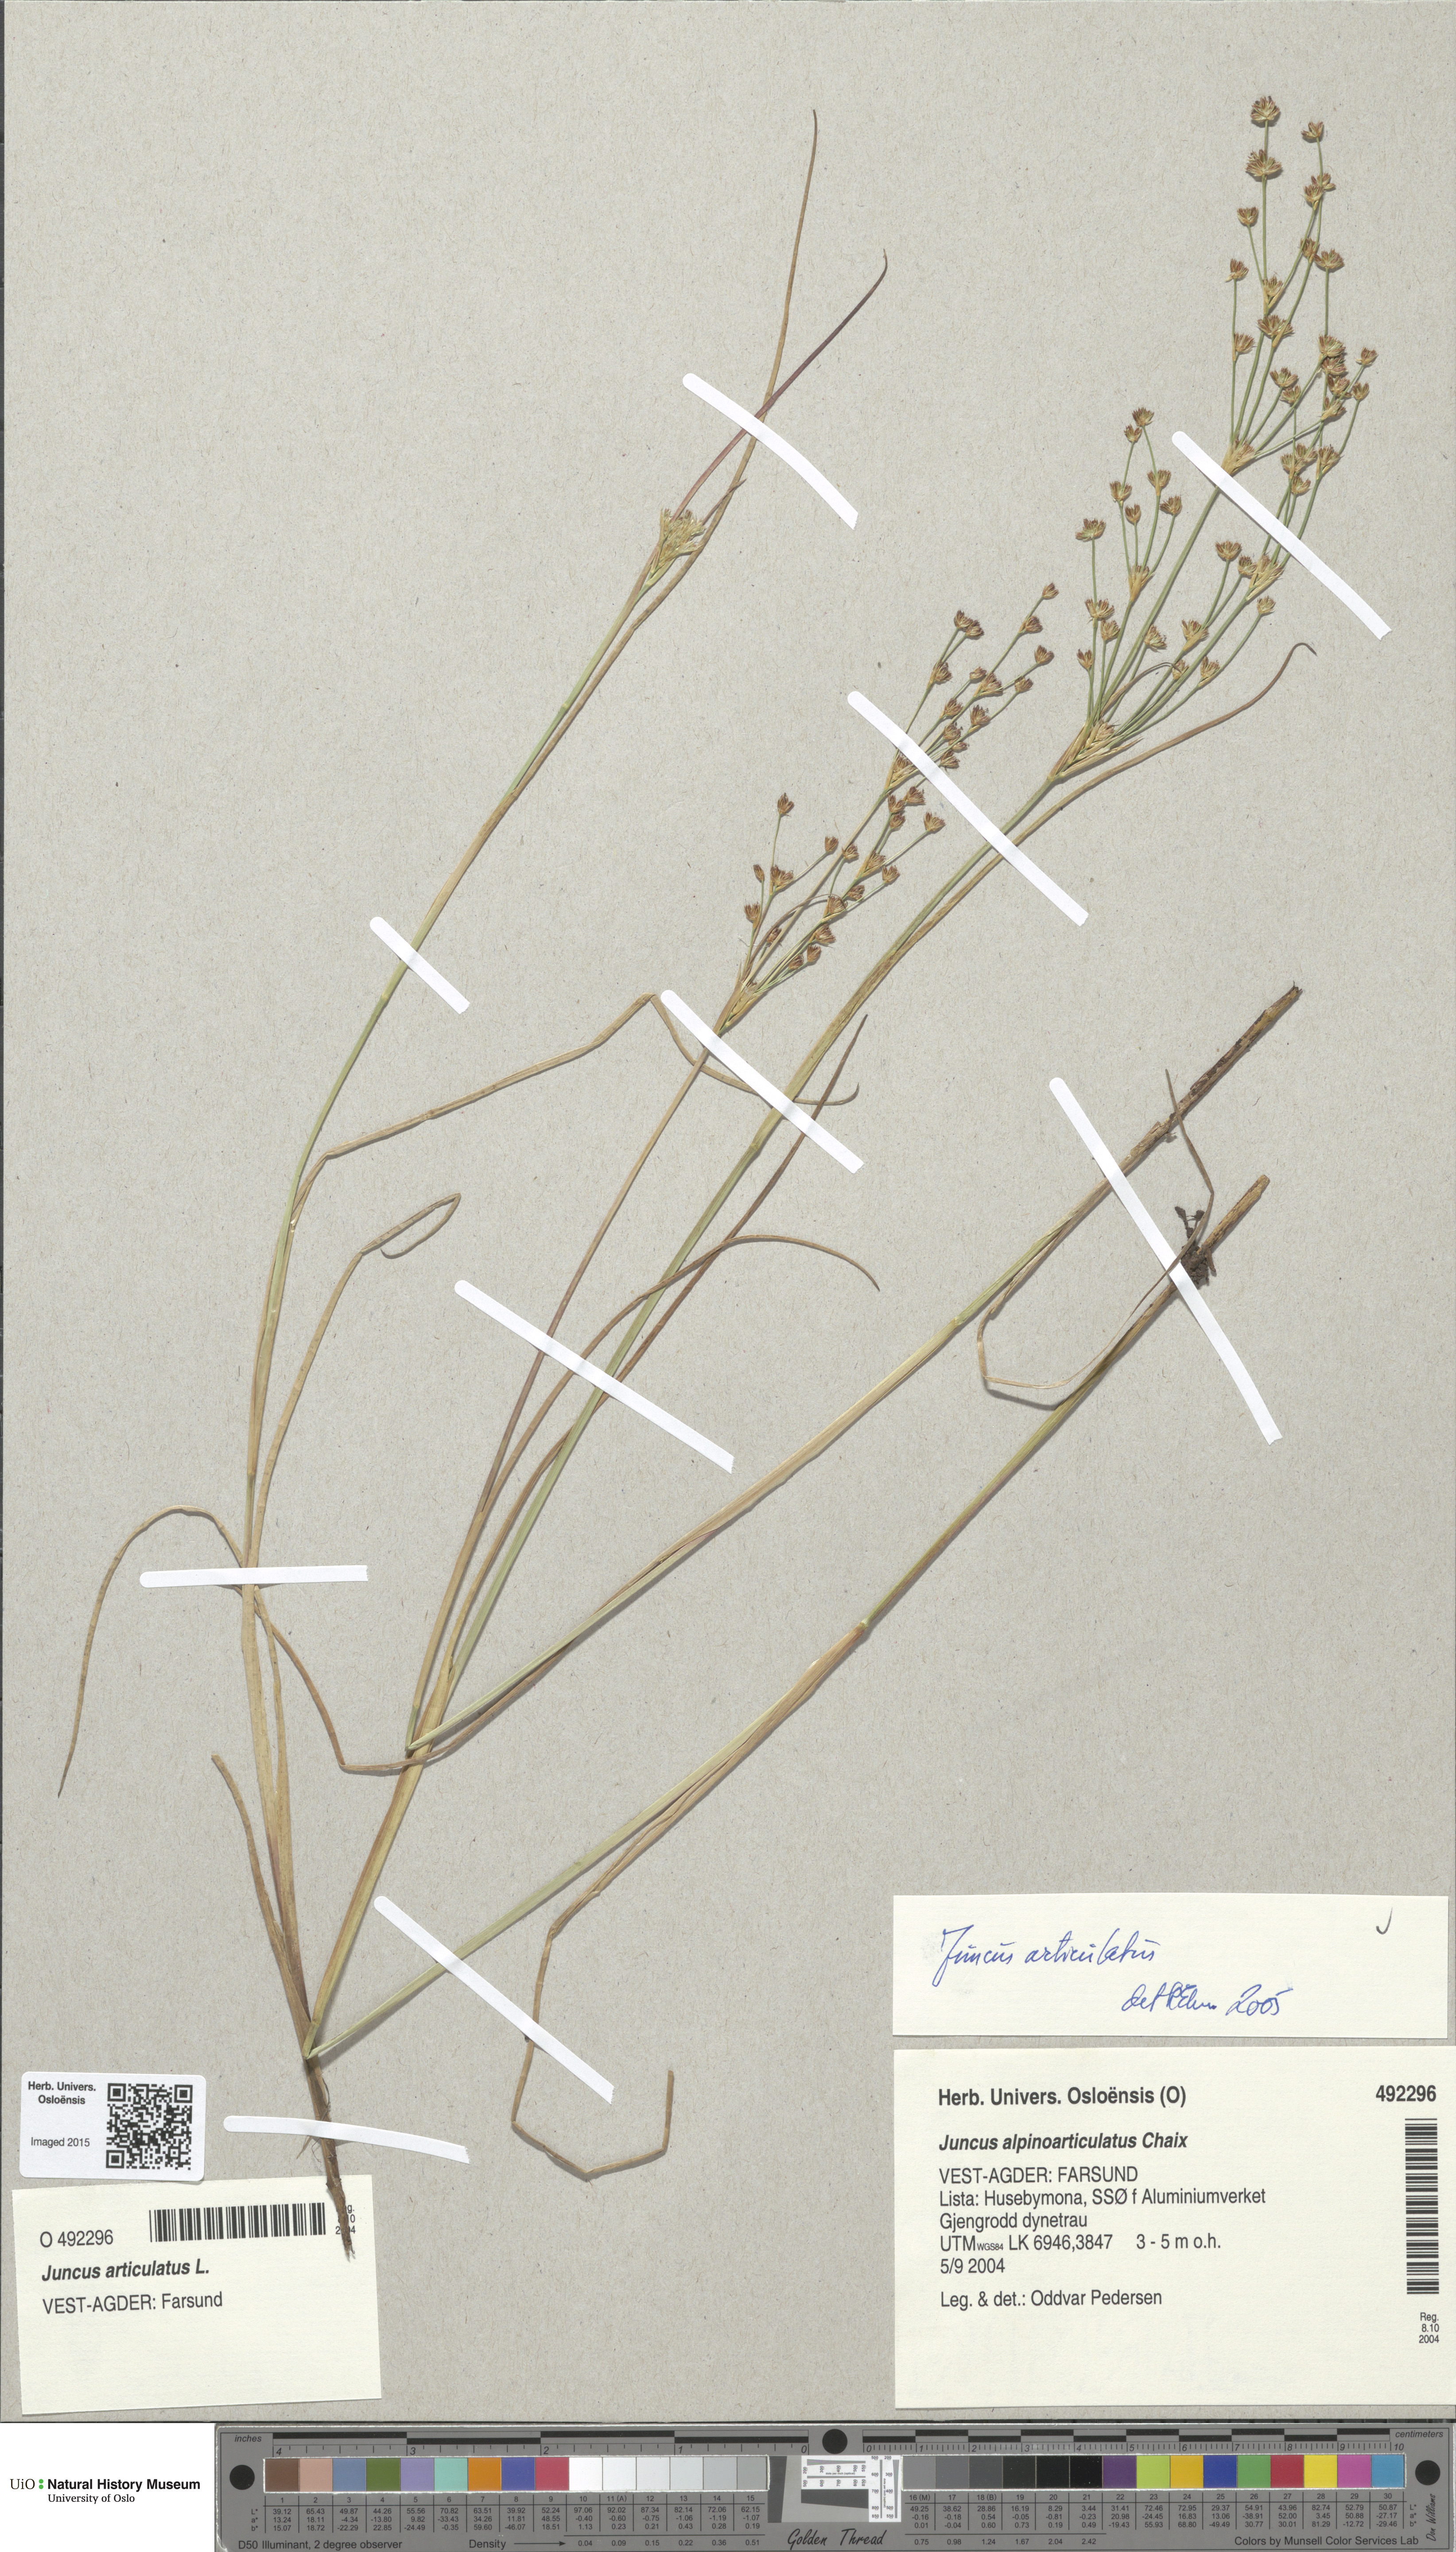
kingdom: Plantae
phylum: Tracheophyta
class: Liliopsida
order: Poales
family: Juncaceae
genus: Juncus
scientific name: Juncus articulatus
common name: Jointed rush
